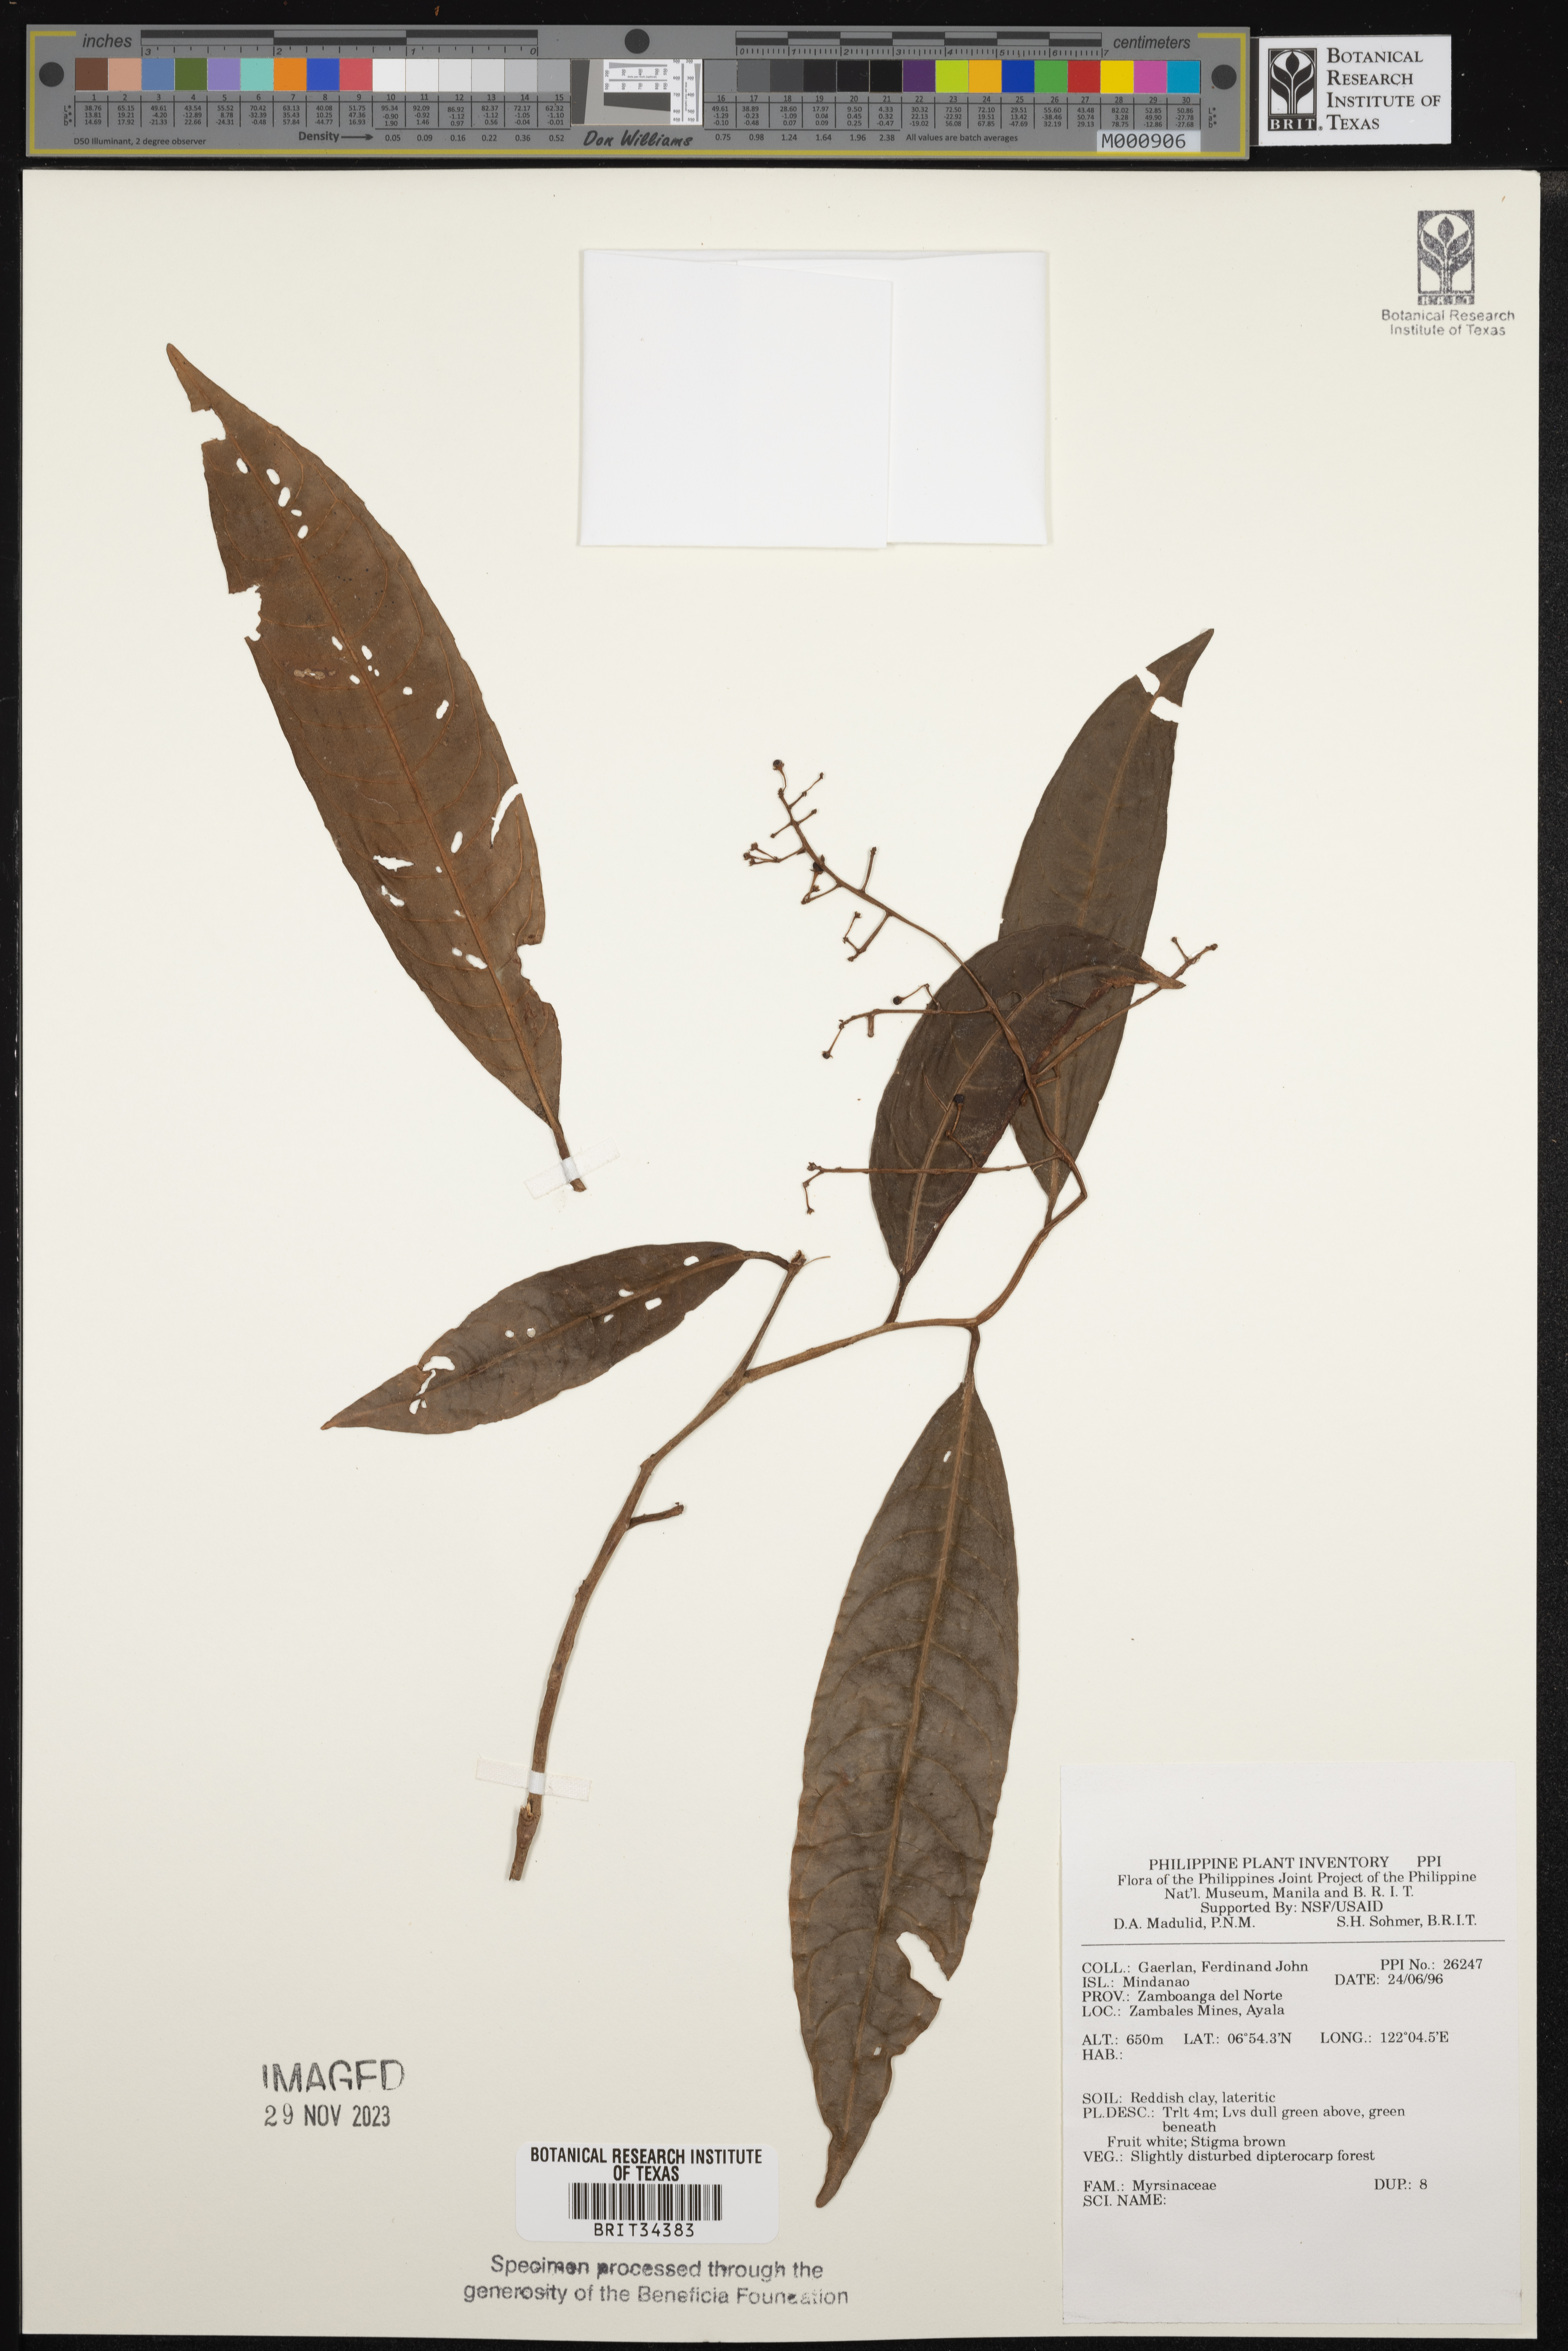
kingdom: Plantae
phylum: Tracheophyta
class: Magnoliopsida
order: Ericales
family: Primulaceae
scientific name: Primulaceae
